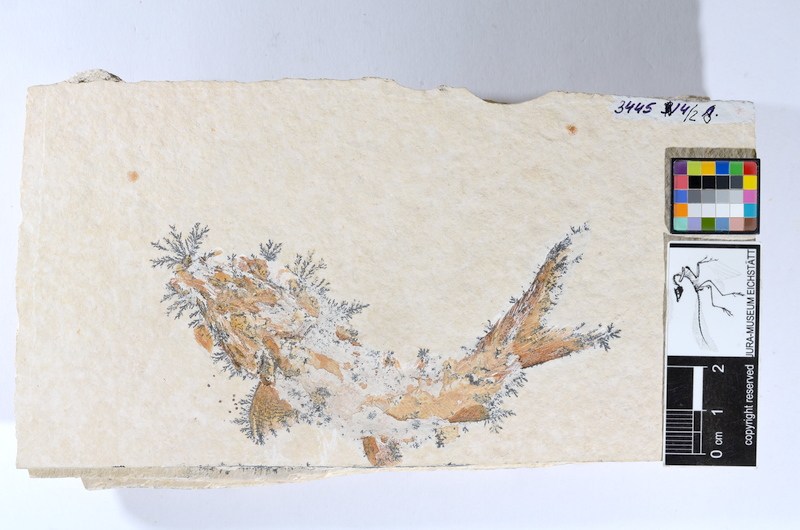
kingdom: Animalia
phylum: Chordata
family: Coccolepididae
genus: Coccolepis
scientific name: Coccolepis bucklandi
